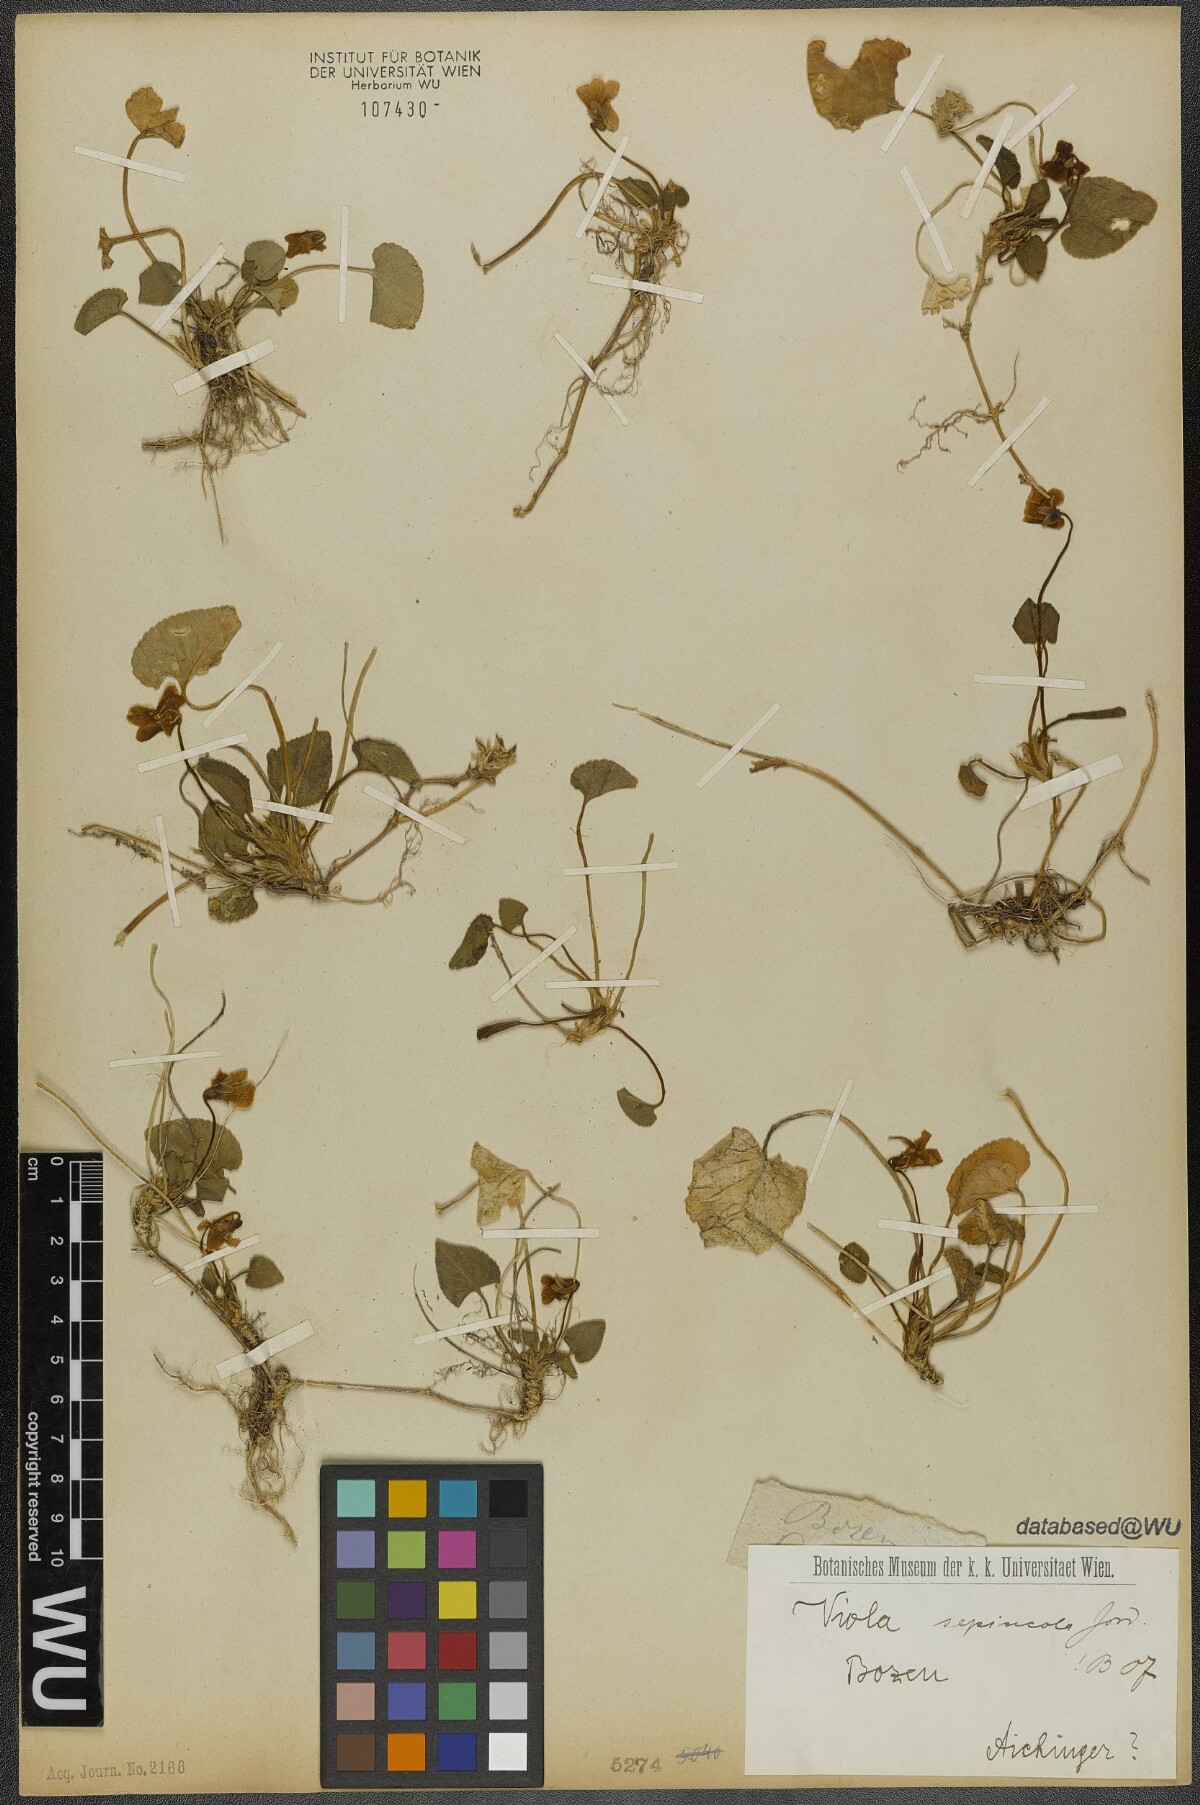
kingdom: Plantae
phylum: Tracheophyta
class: Magnoliopsida
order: Malpighiales
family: Violaceae
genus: Viola
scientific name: Viola suavis
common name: Russian violet
